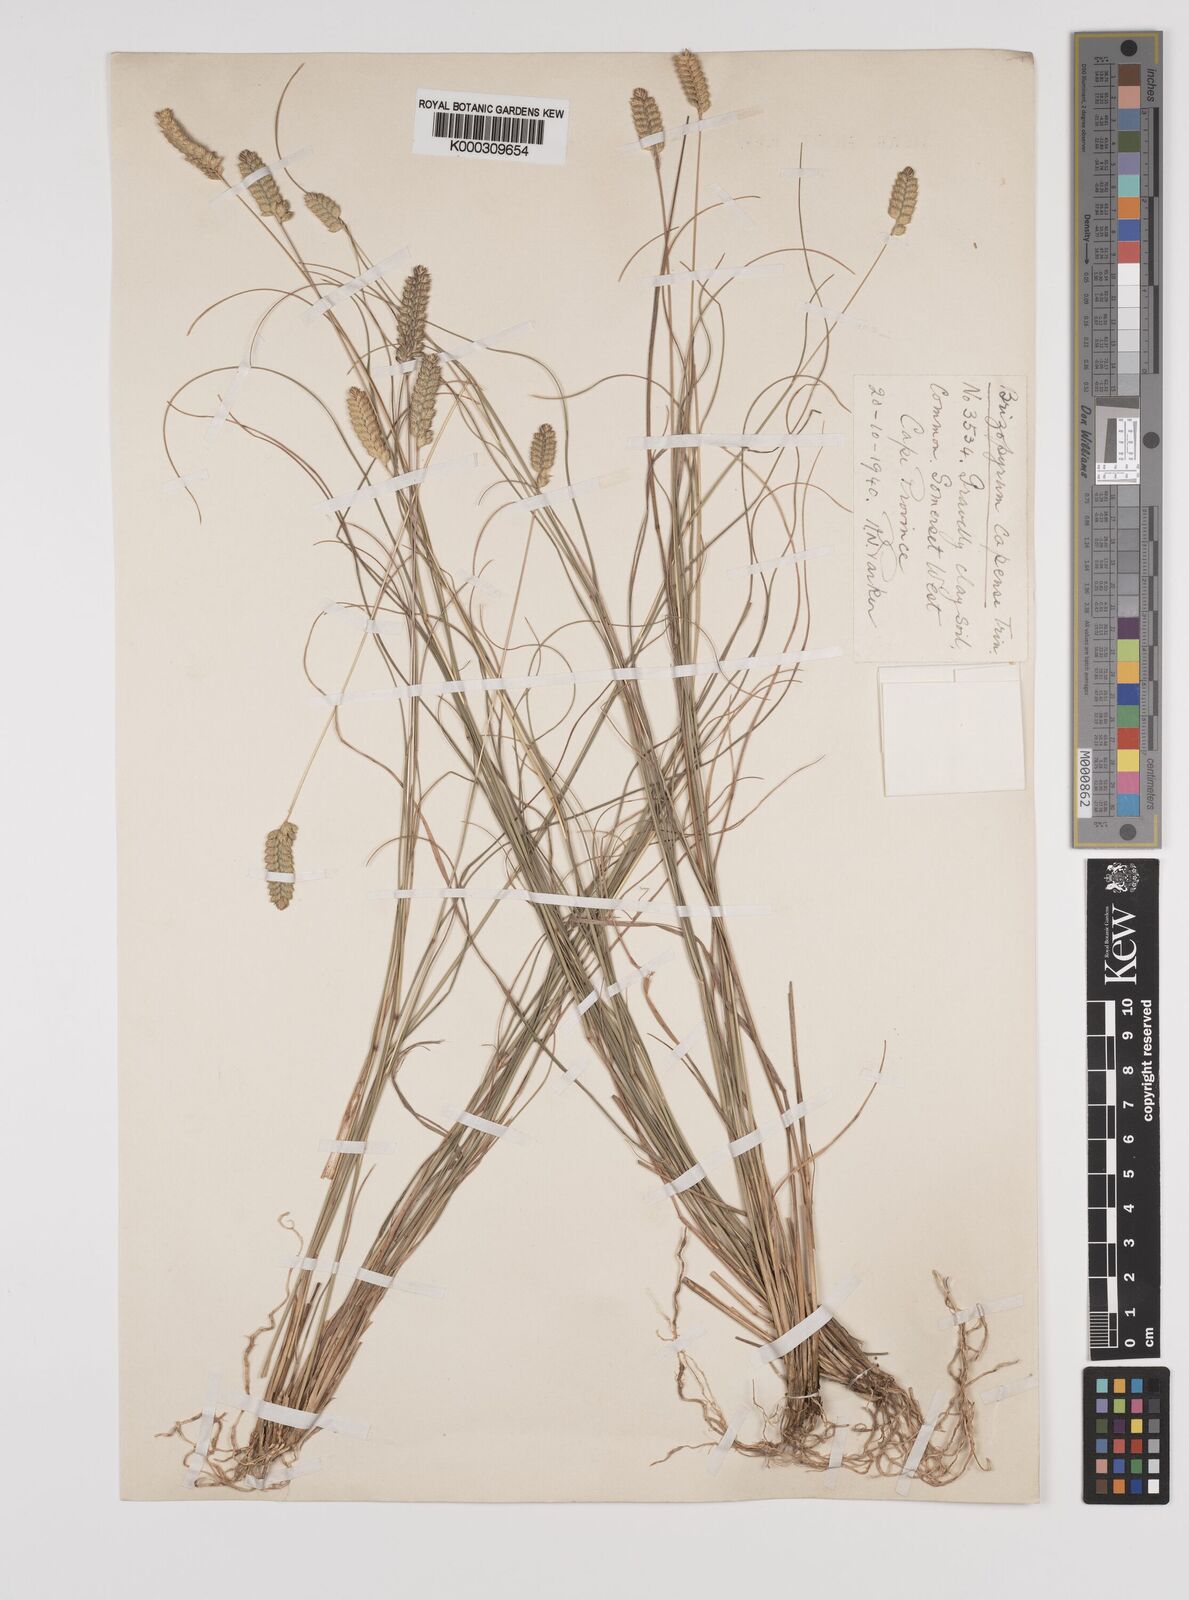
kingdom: Plantae
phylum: Tracheophyta
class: Liliopsida
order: Poales
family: Poaceae
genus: Tribolium
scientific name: Tribolium uniolae
